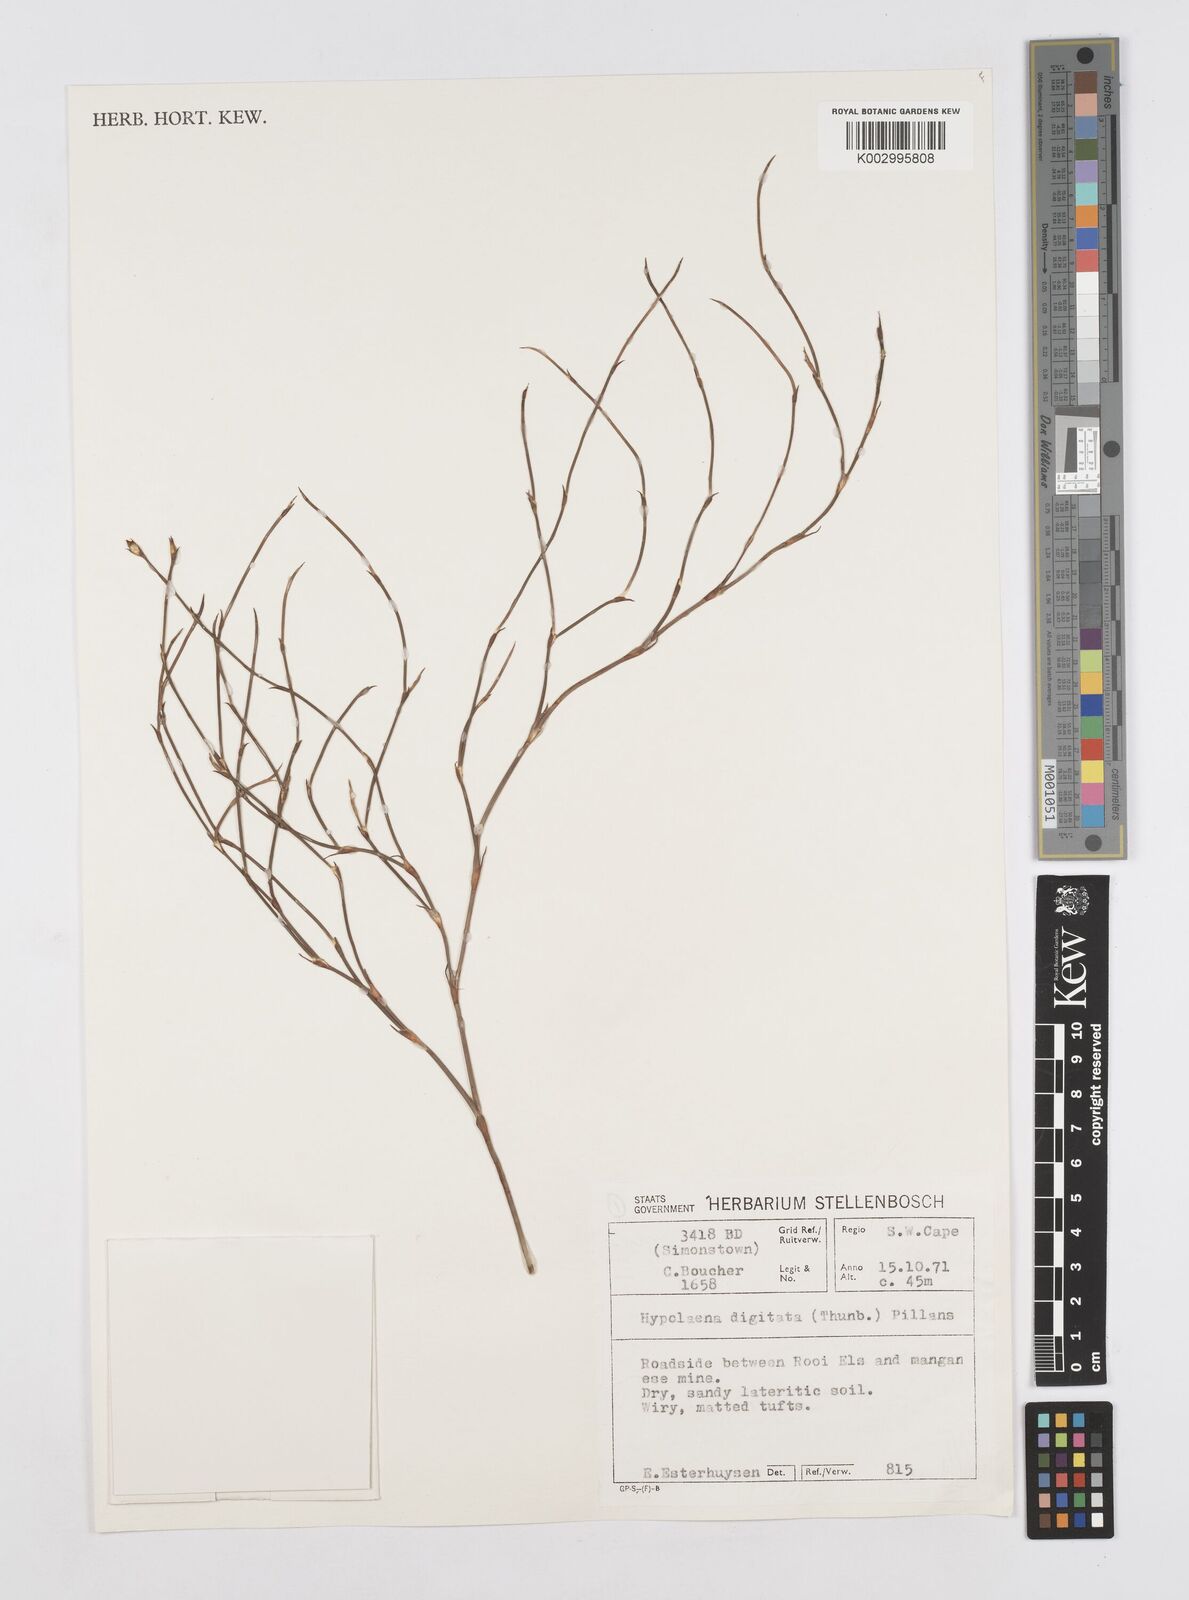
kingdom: Plantae
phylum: Tracheophyta
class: Liliopsida
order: Poales
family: Restionaceae
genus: Mastersiella
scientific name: Mastersiella digitata
